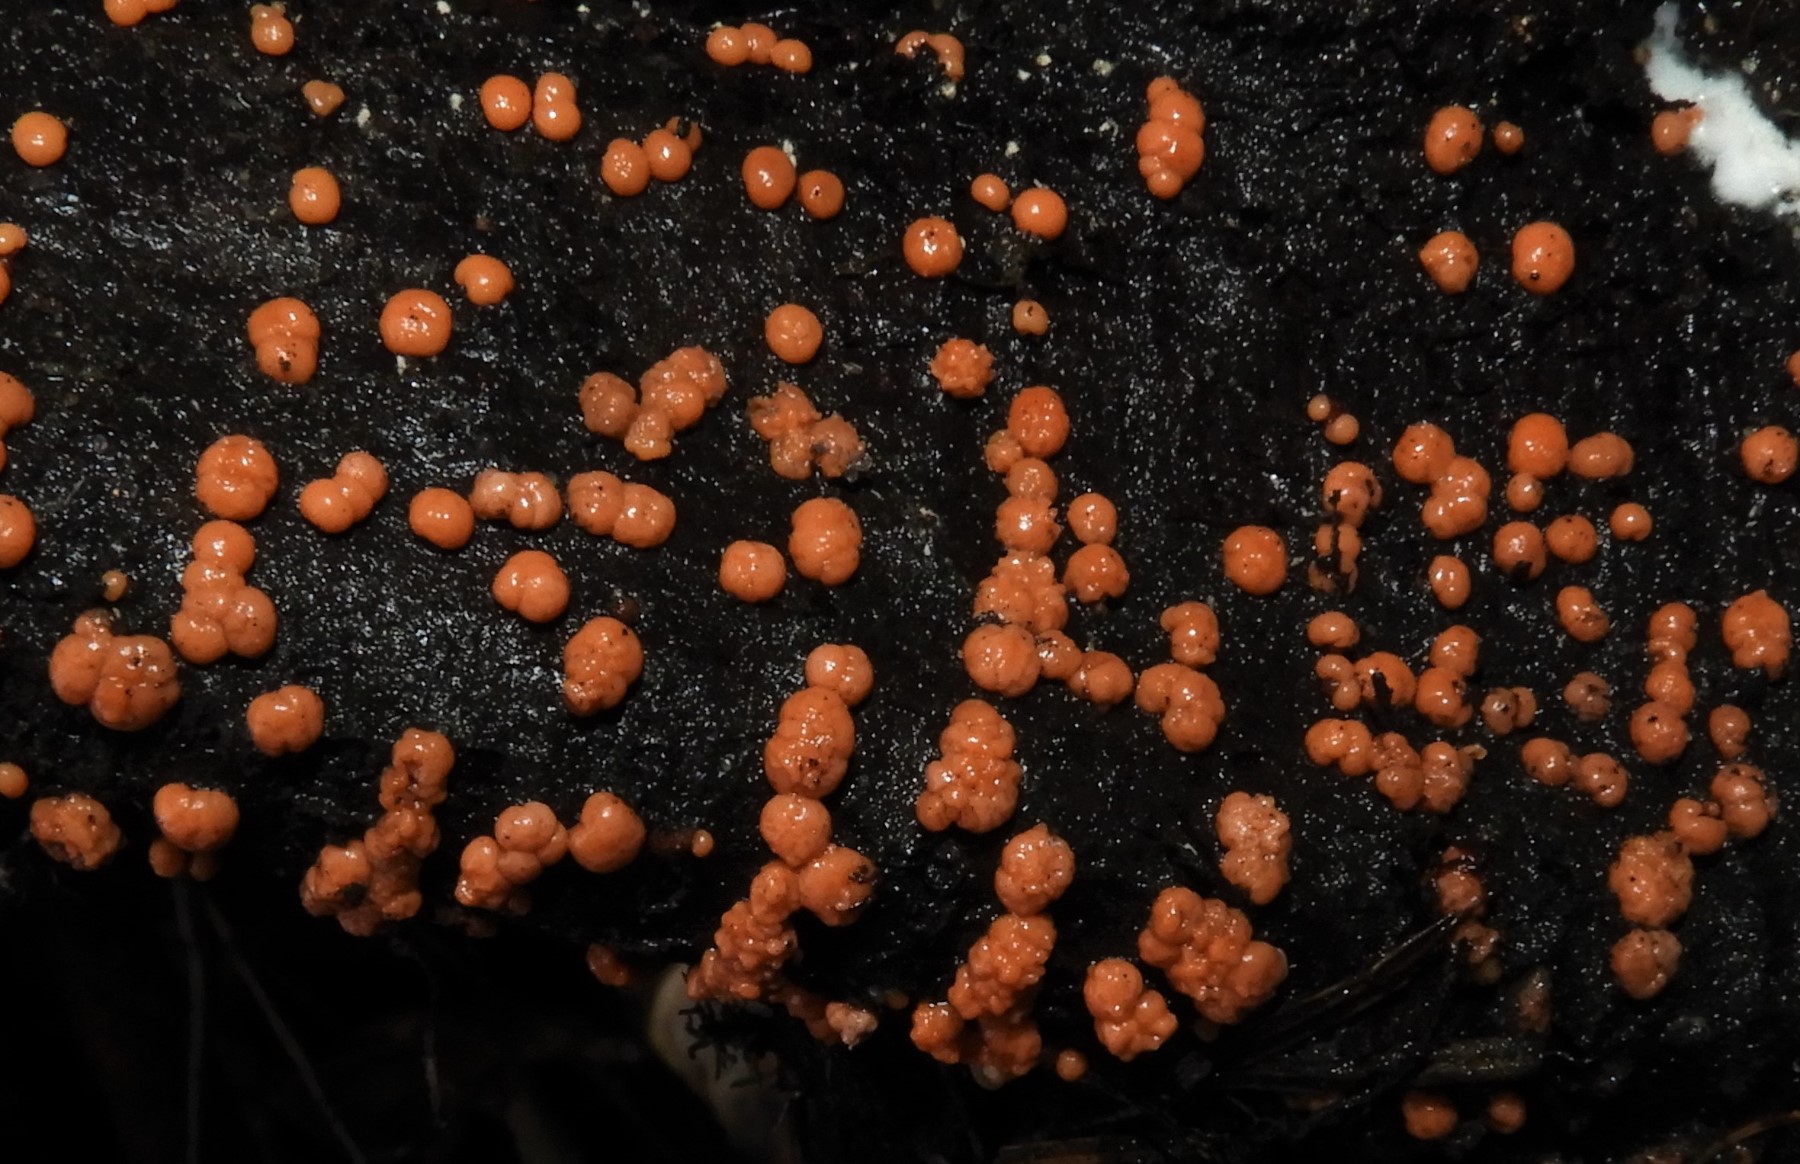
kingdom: Fungi
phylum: Ascomycota
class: Sordariomycetes
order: Hypocreales
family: Nectriaceae
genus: Nectria
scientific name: Nectria cinnabarina
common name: almindelig cinnobersvamp
